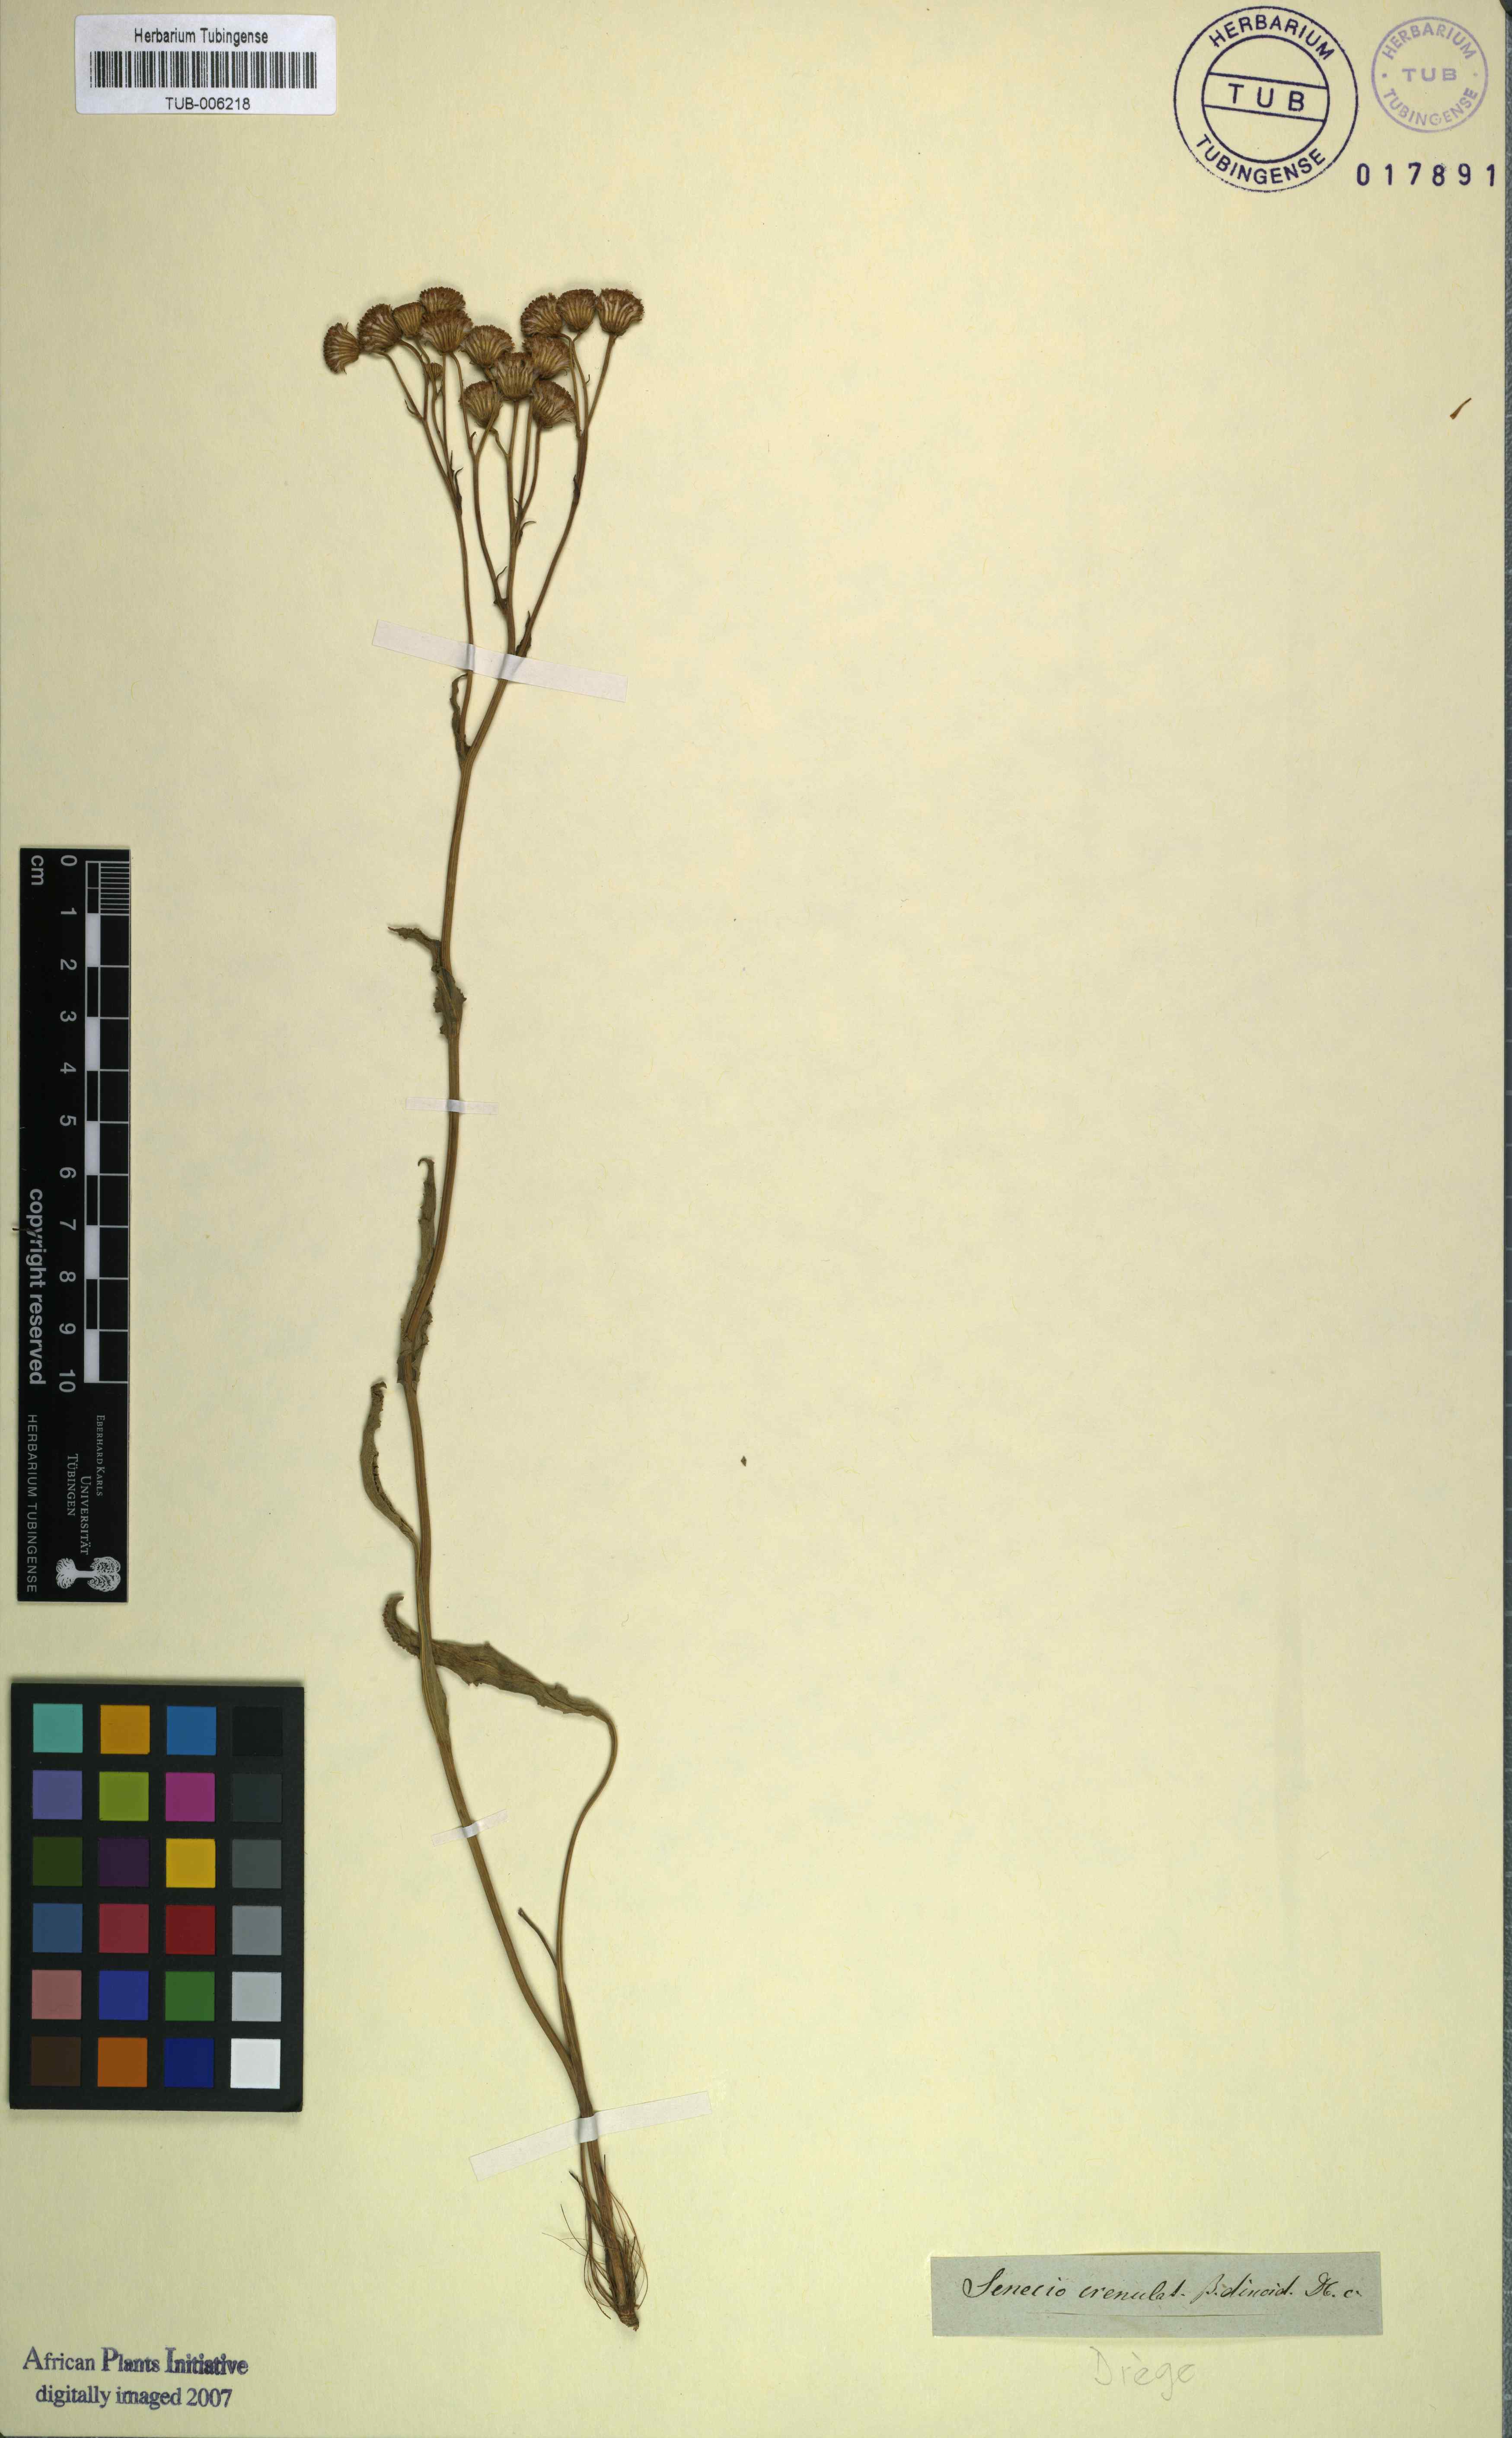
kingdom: Plantae
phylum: Tracheophyta
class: Magnoliopsida
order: Asterales
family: Asteraceae
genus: Senecio
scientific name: Senecio crenulatus
